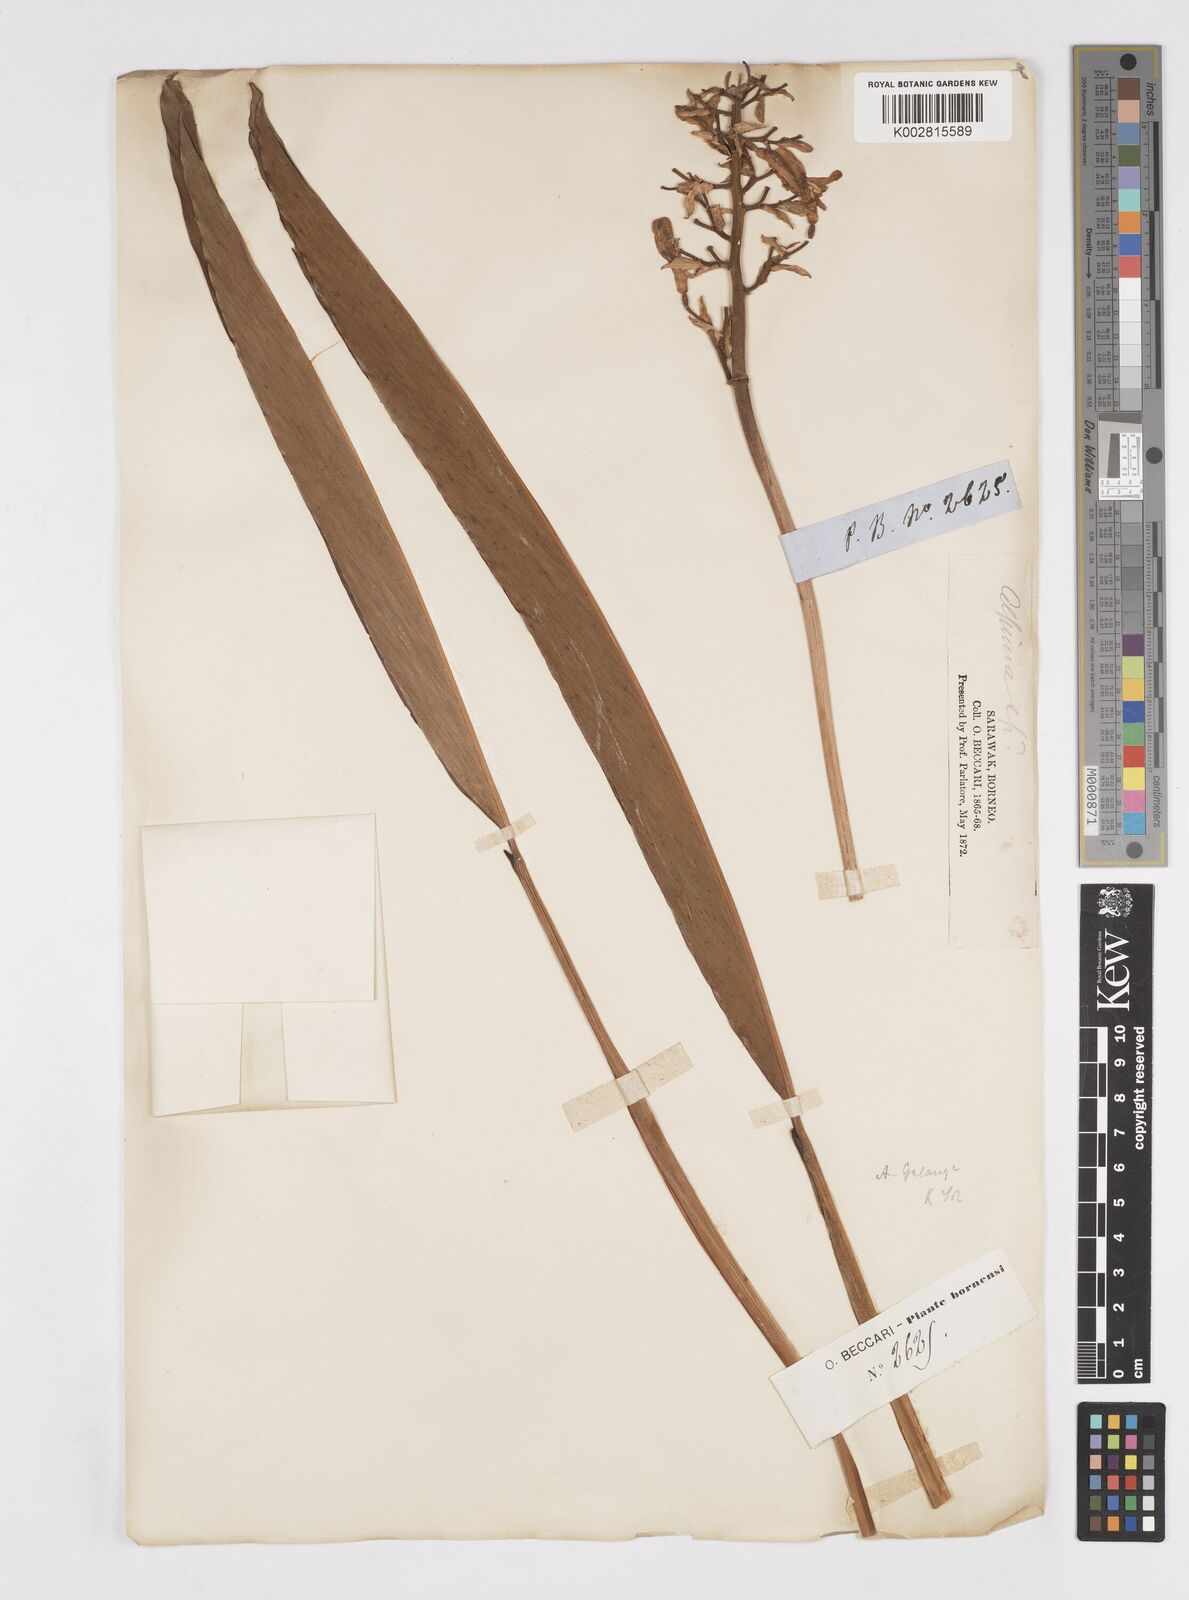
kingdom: Plantae
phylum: Tracheophyta
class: Liliopsida
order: Zingiberales
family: Zingiberaceae
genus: Alpinia
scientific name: Alpinia galanga
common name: Siamese-ginger
